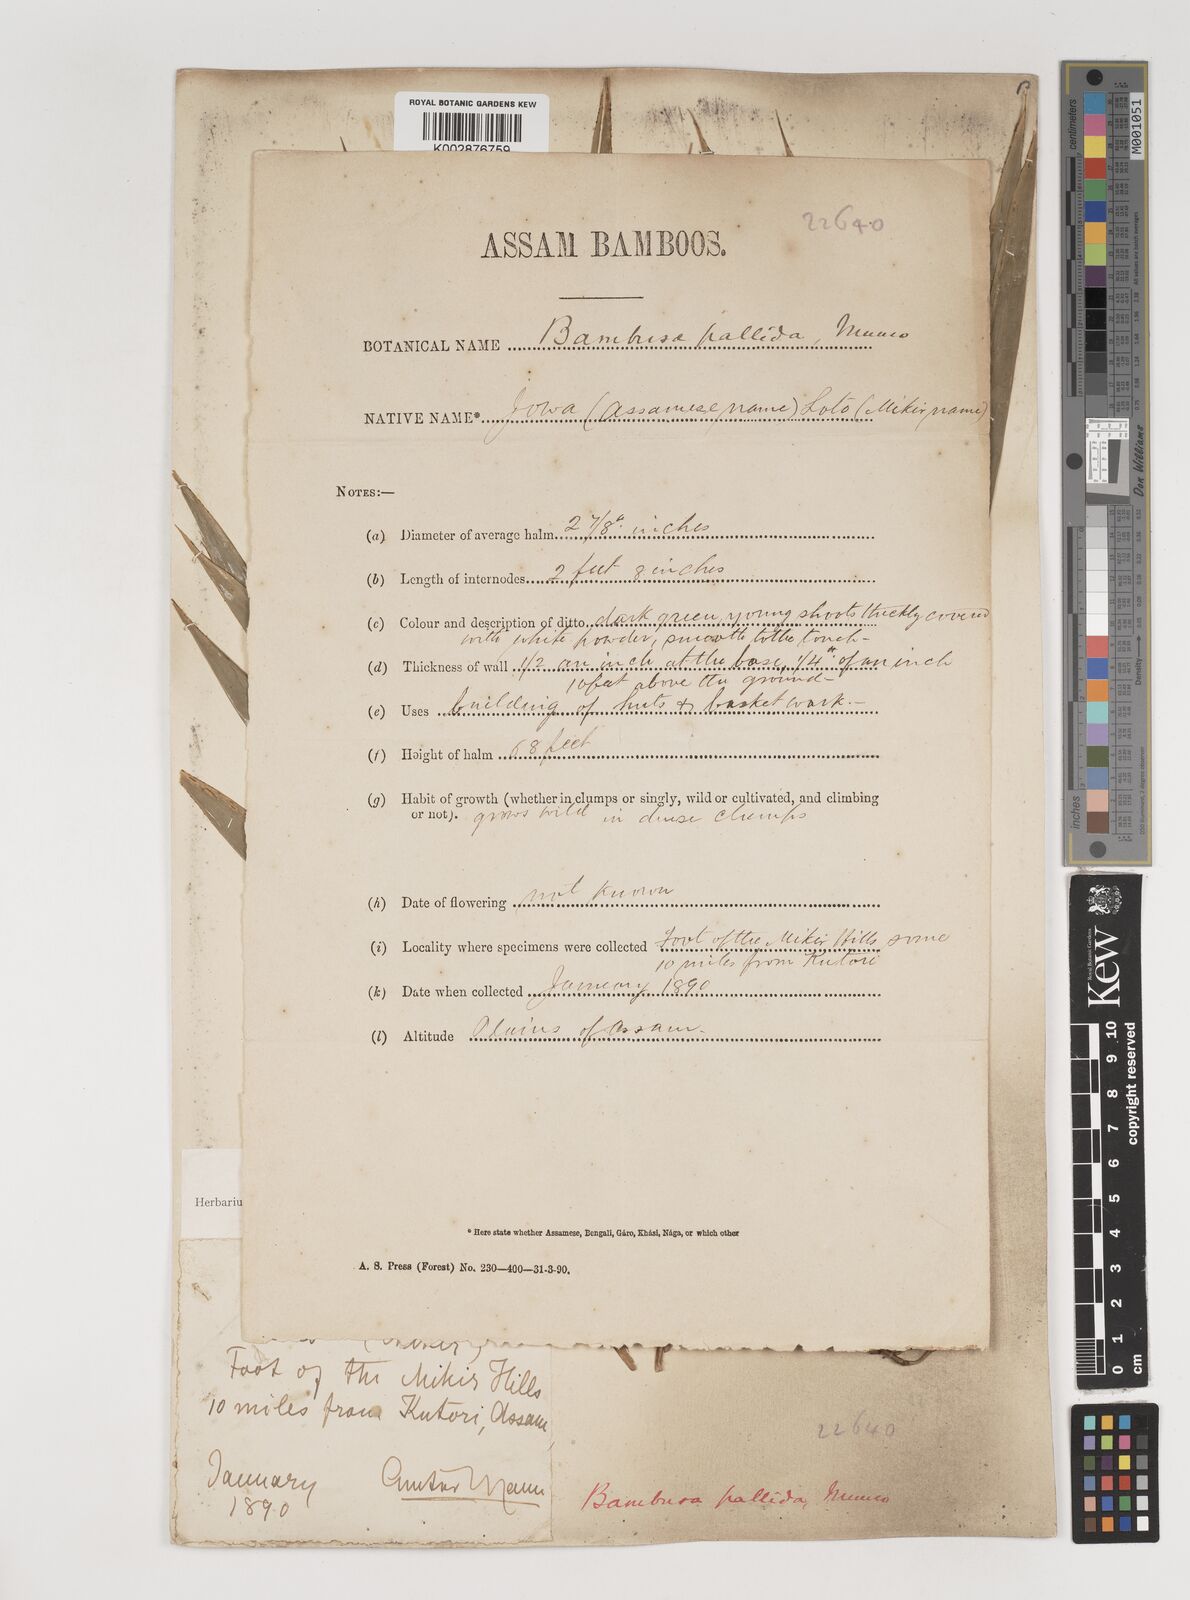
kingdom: Plantae
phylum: Tracheophyta
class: Liliopsida
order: Poales
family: Poaceae
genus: Bambusa
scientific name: Bambusa pallida
